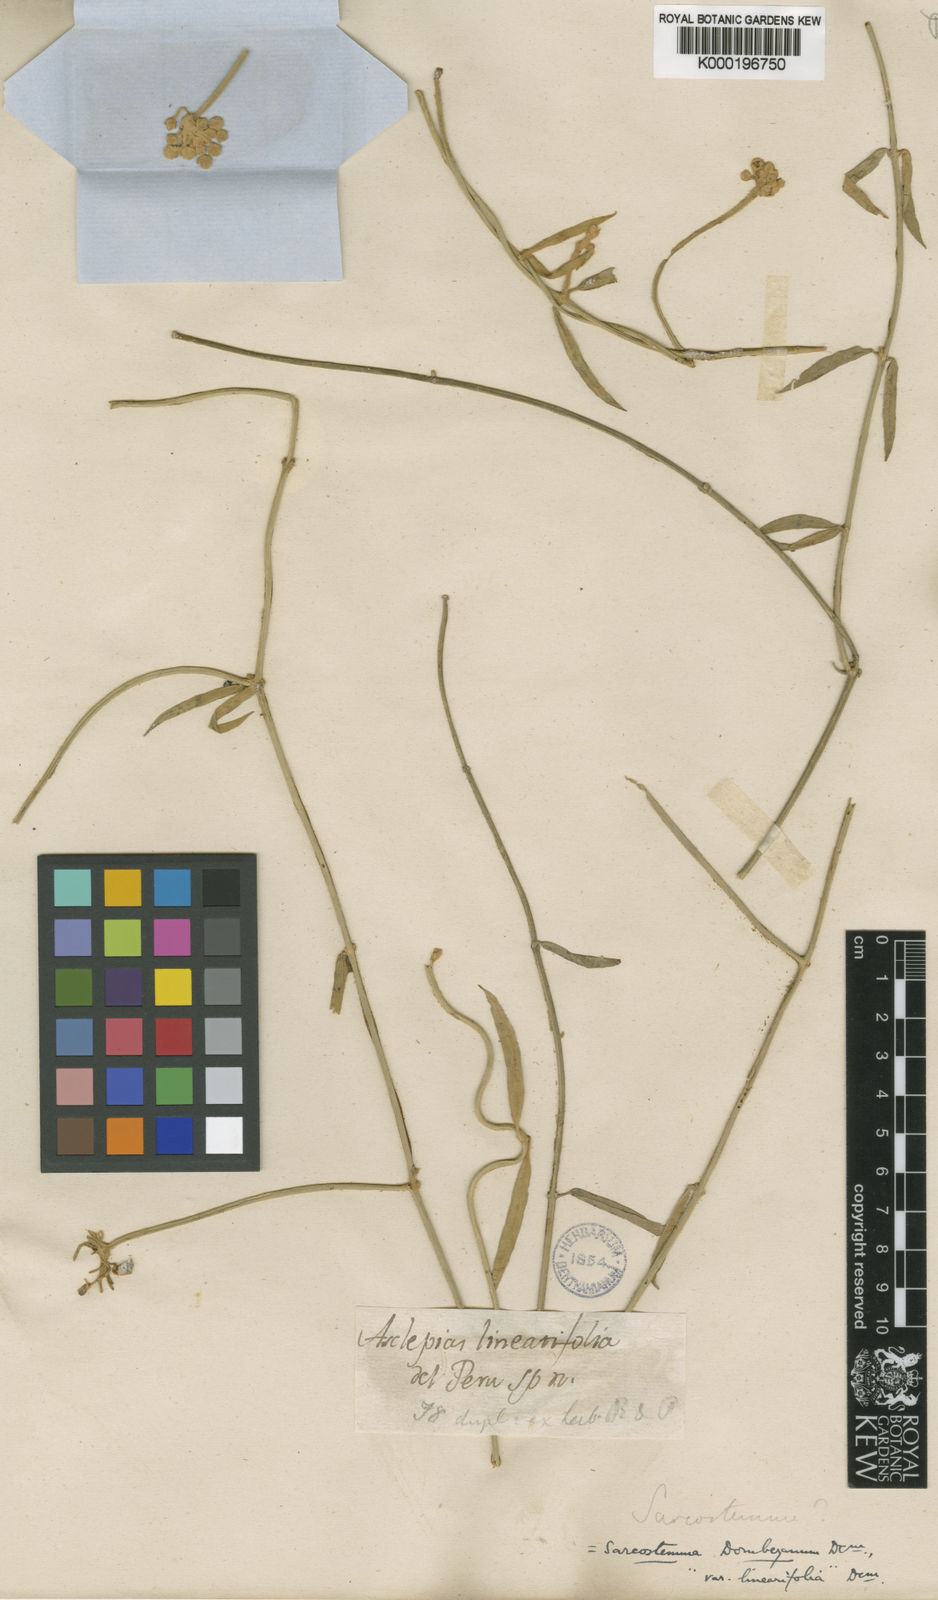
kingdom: Plantae
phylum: Tracheophyta
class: Magnoliopsida
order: Gentianales
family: Apocynaceae
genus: Funastrum
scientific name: Funastrum clausum
